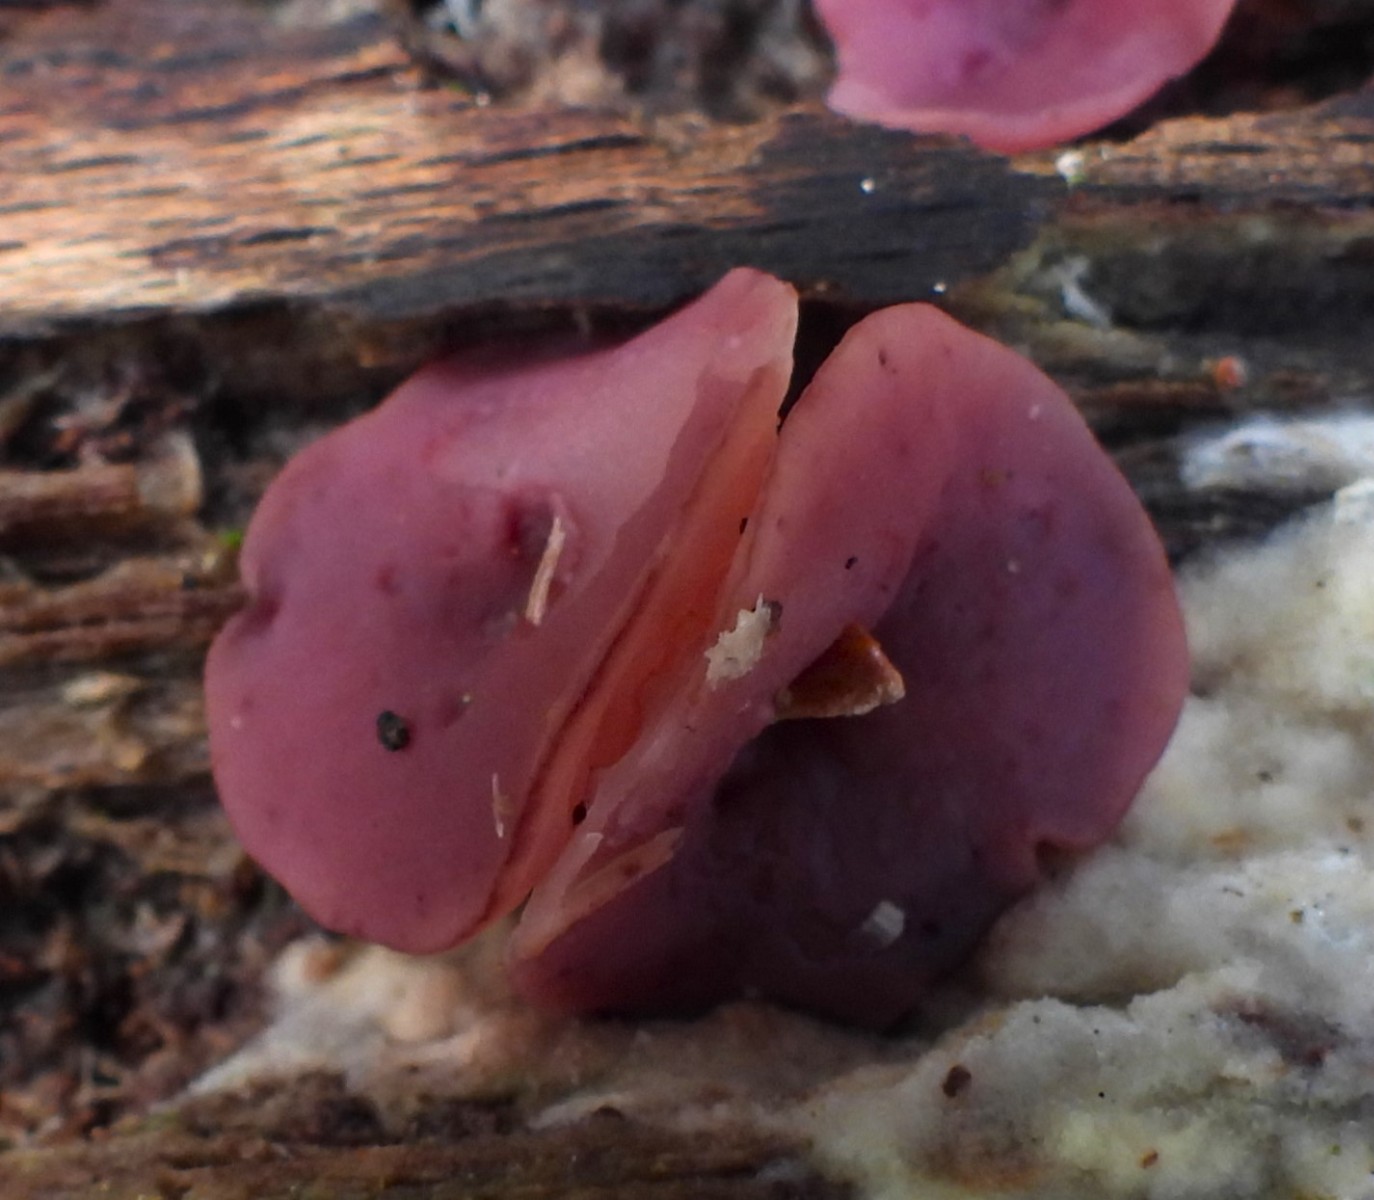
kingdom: Fungi
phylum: Ascomycota
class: Leotiomycetes
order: Helotiales
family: Gelatinodiscaceae
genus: Ascocoryne
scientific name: Ascocoryne cylichnium
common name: stor sejskive
